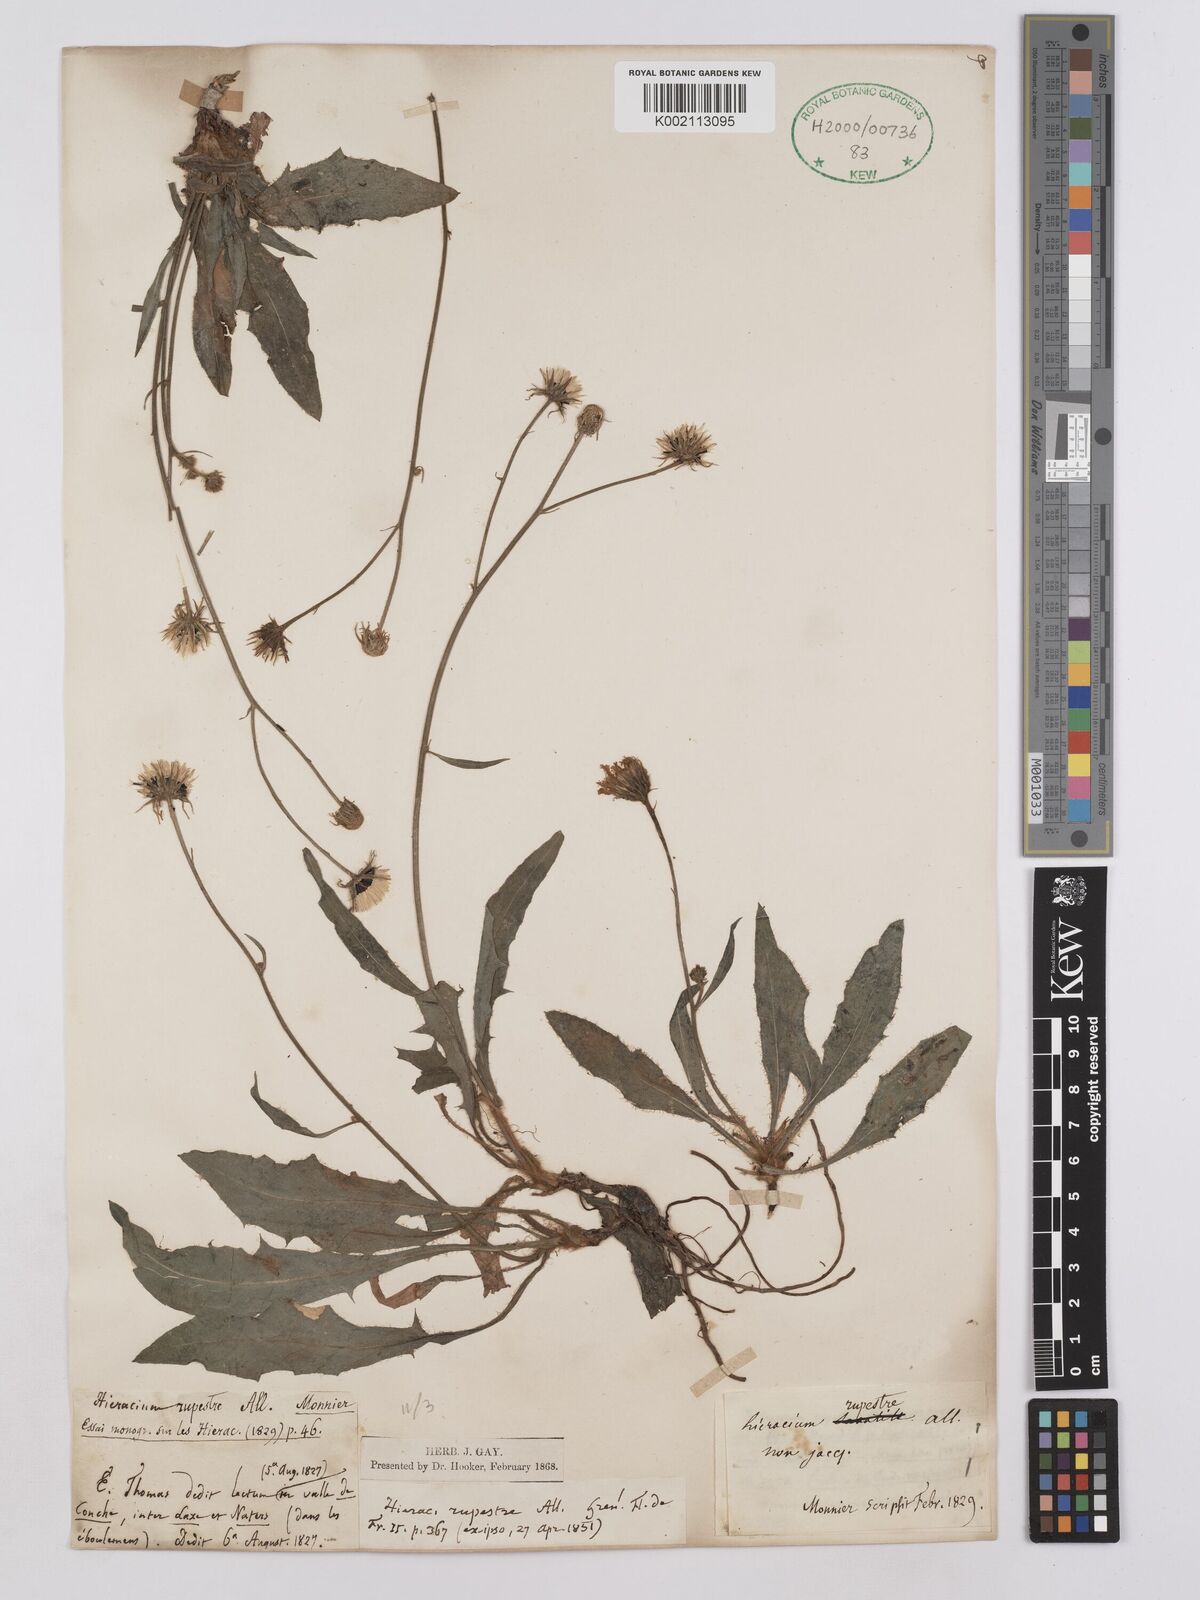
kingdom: Plantae
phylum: Tracheophyta
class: Magnoliopsida
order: Asterales
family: Asteraceae
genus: Hieracium
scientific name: Hieracium glaucum
